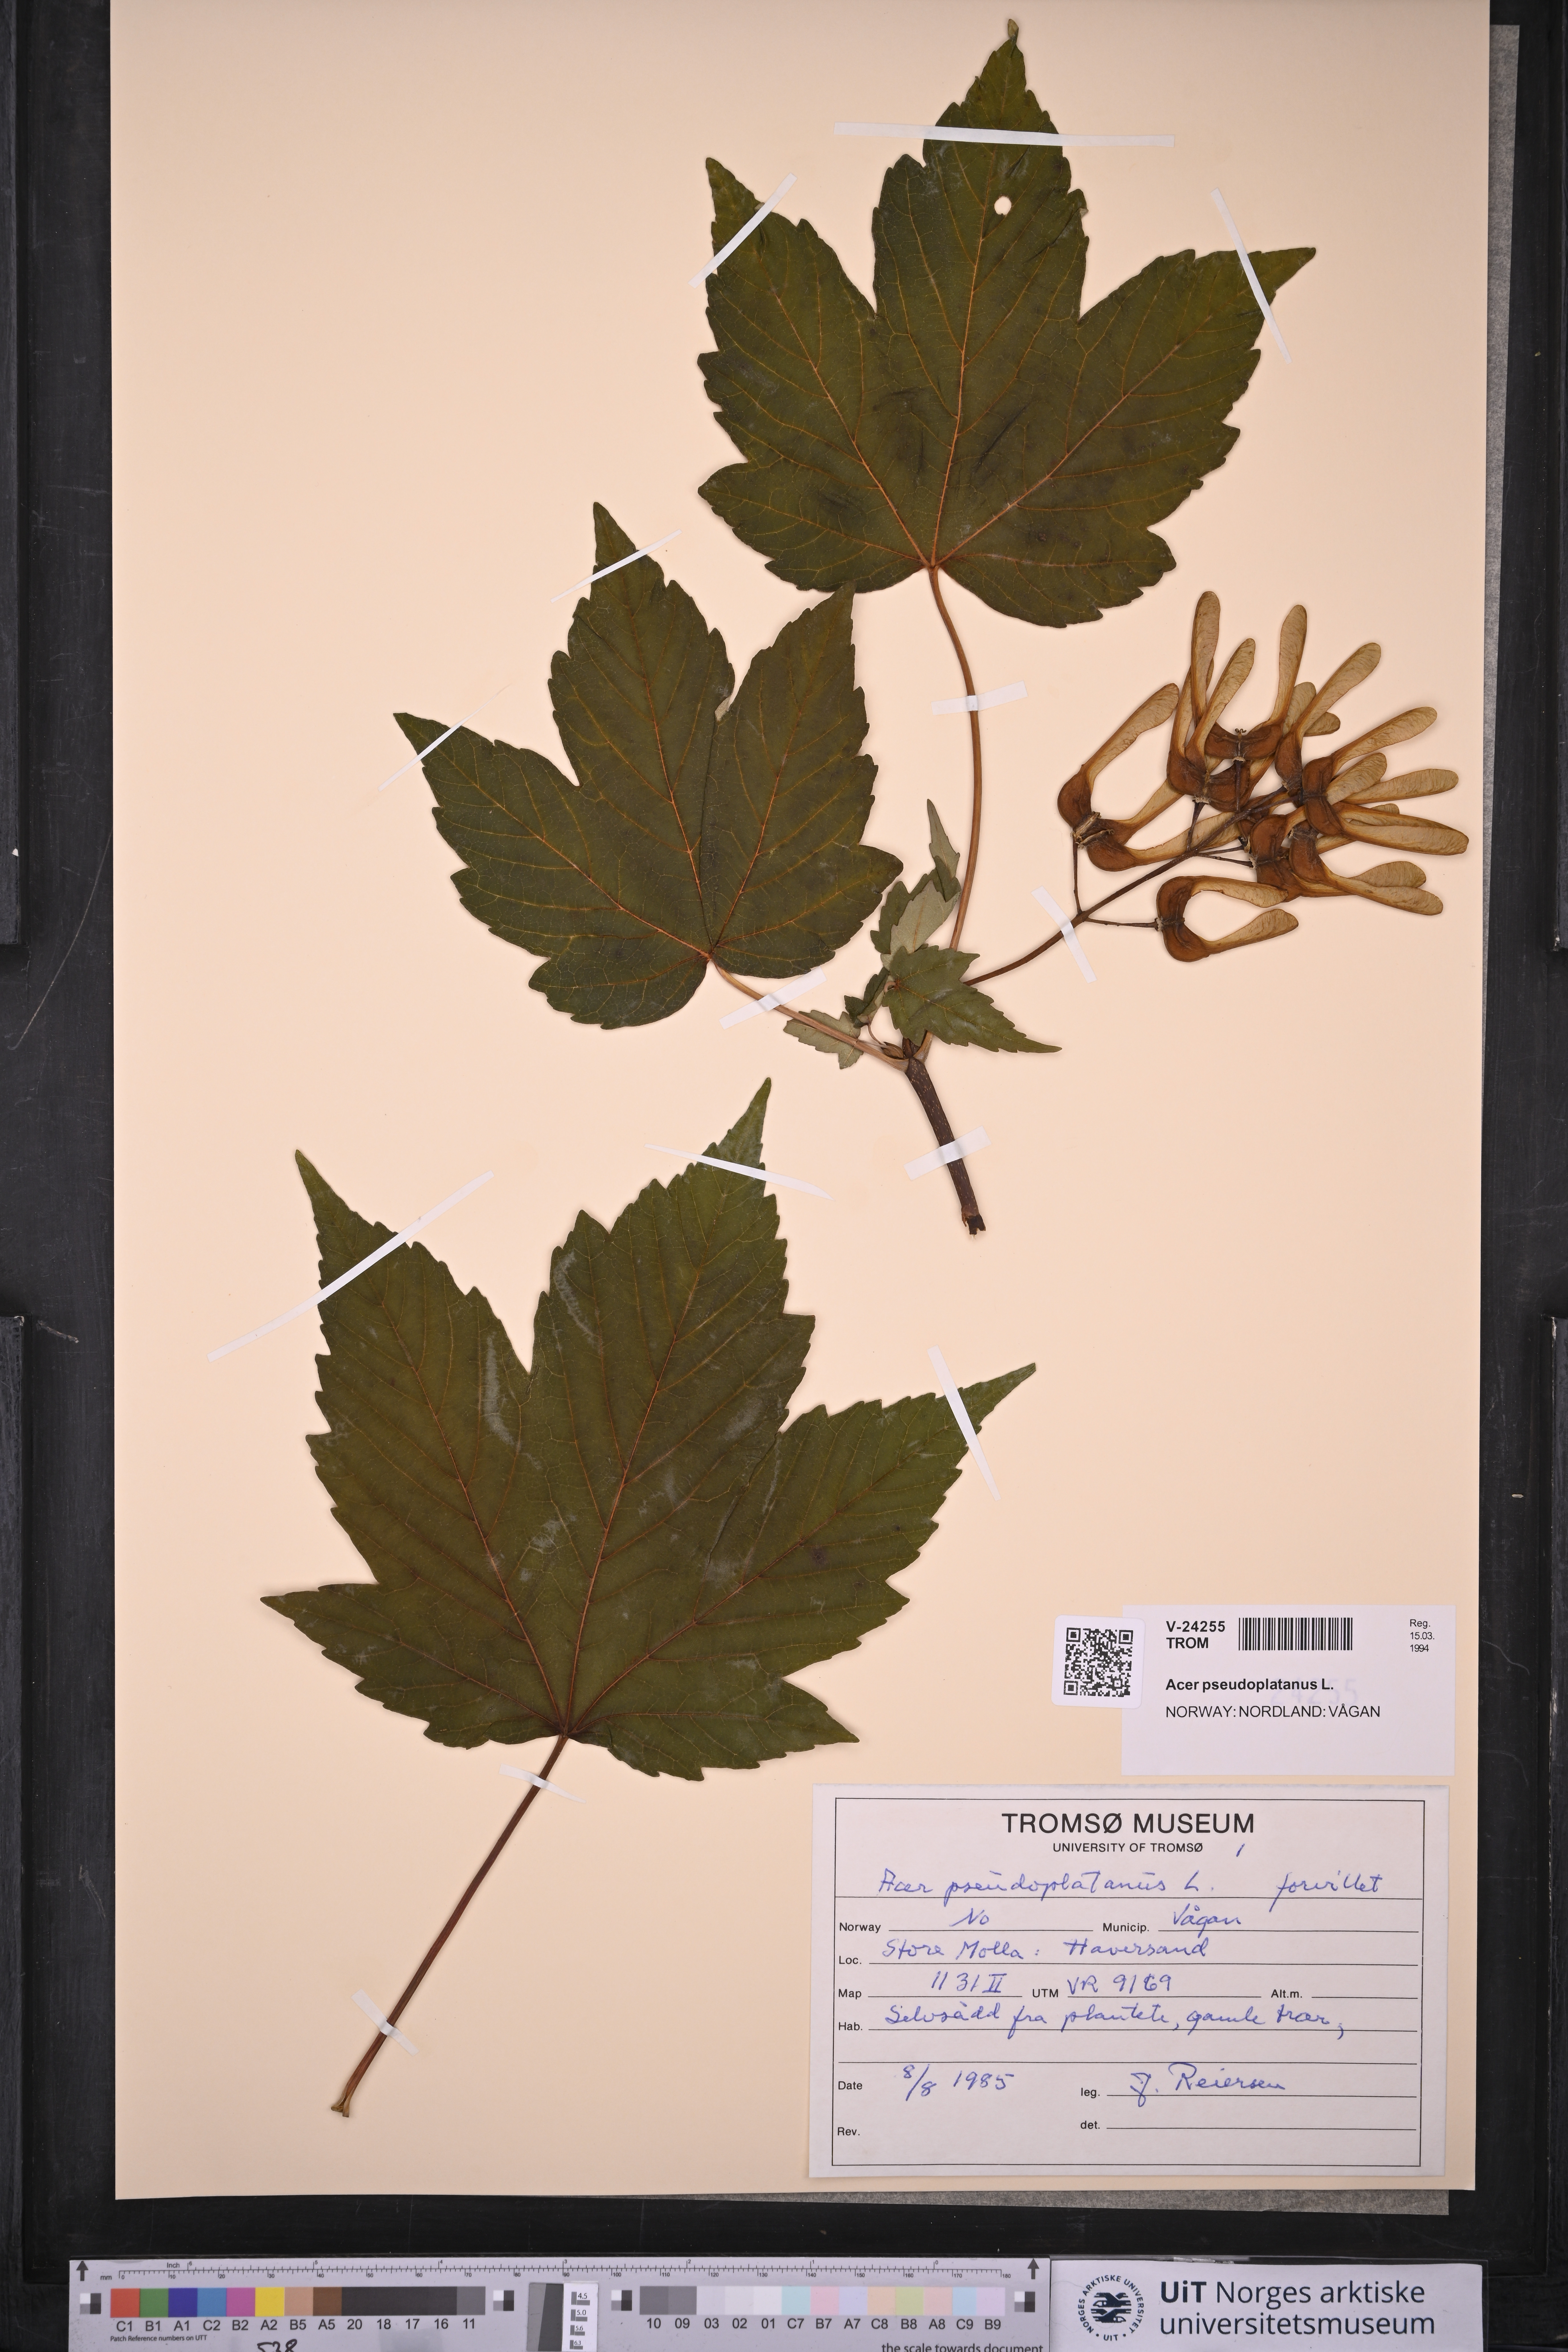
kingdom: Plantae
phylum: Tracheophyta
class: Magnoliopsida
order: Sapindales
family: Sapindaceae
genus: Acer
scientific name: Acer pseudoplatanus
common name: Sycamore
